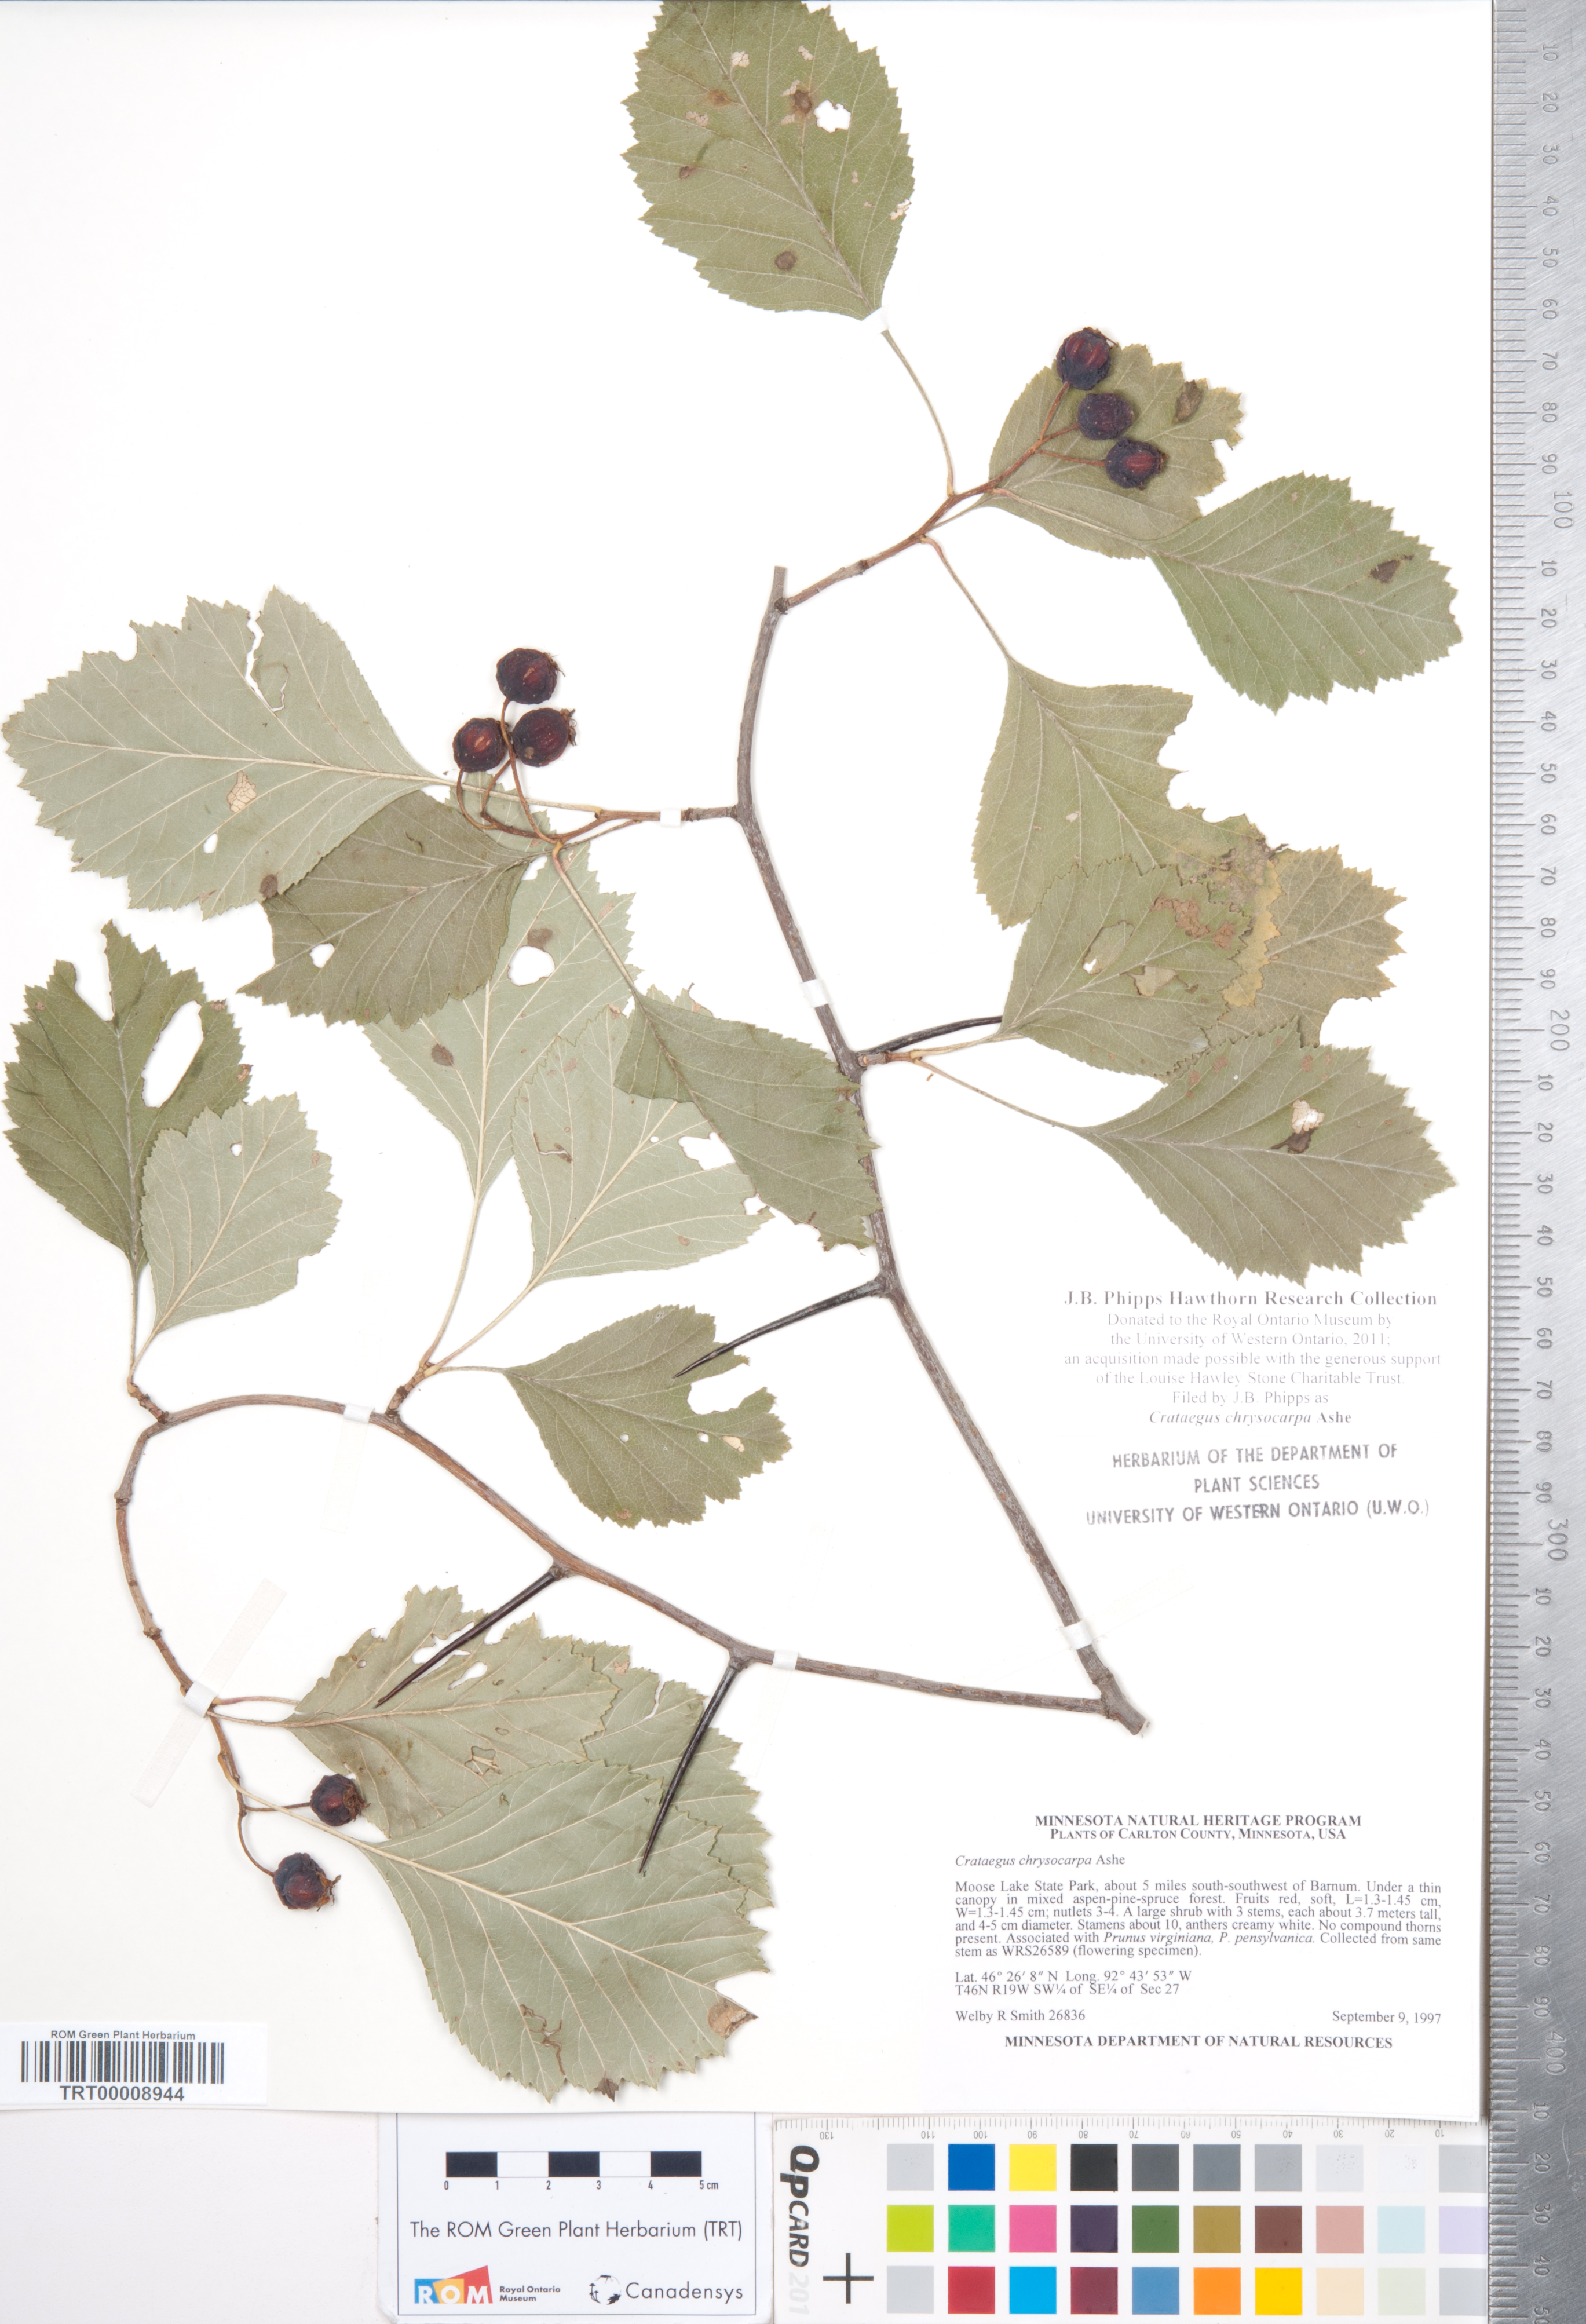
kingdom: Plantae
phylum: Tracheophyta
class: Magnoliopsida
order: Rosales
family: Rosaceae
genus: Crataegus
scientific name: Crataegus chrysocarpa
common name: Fire-berry hawthorn
